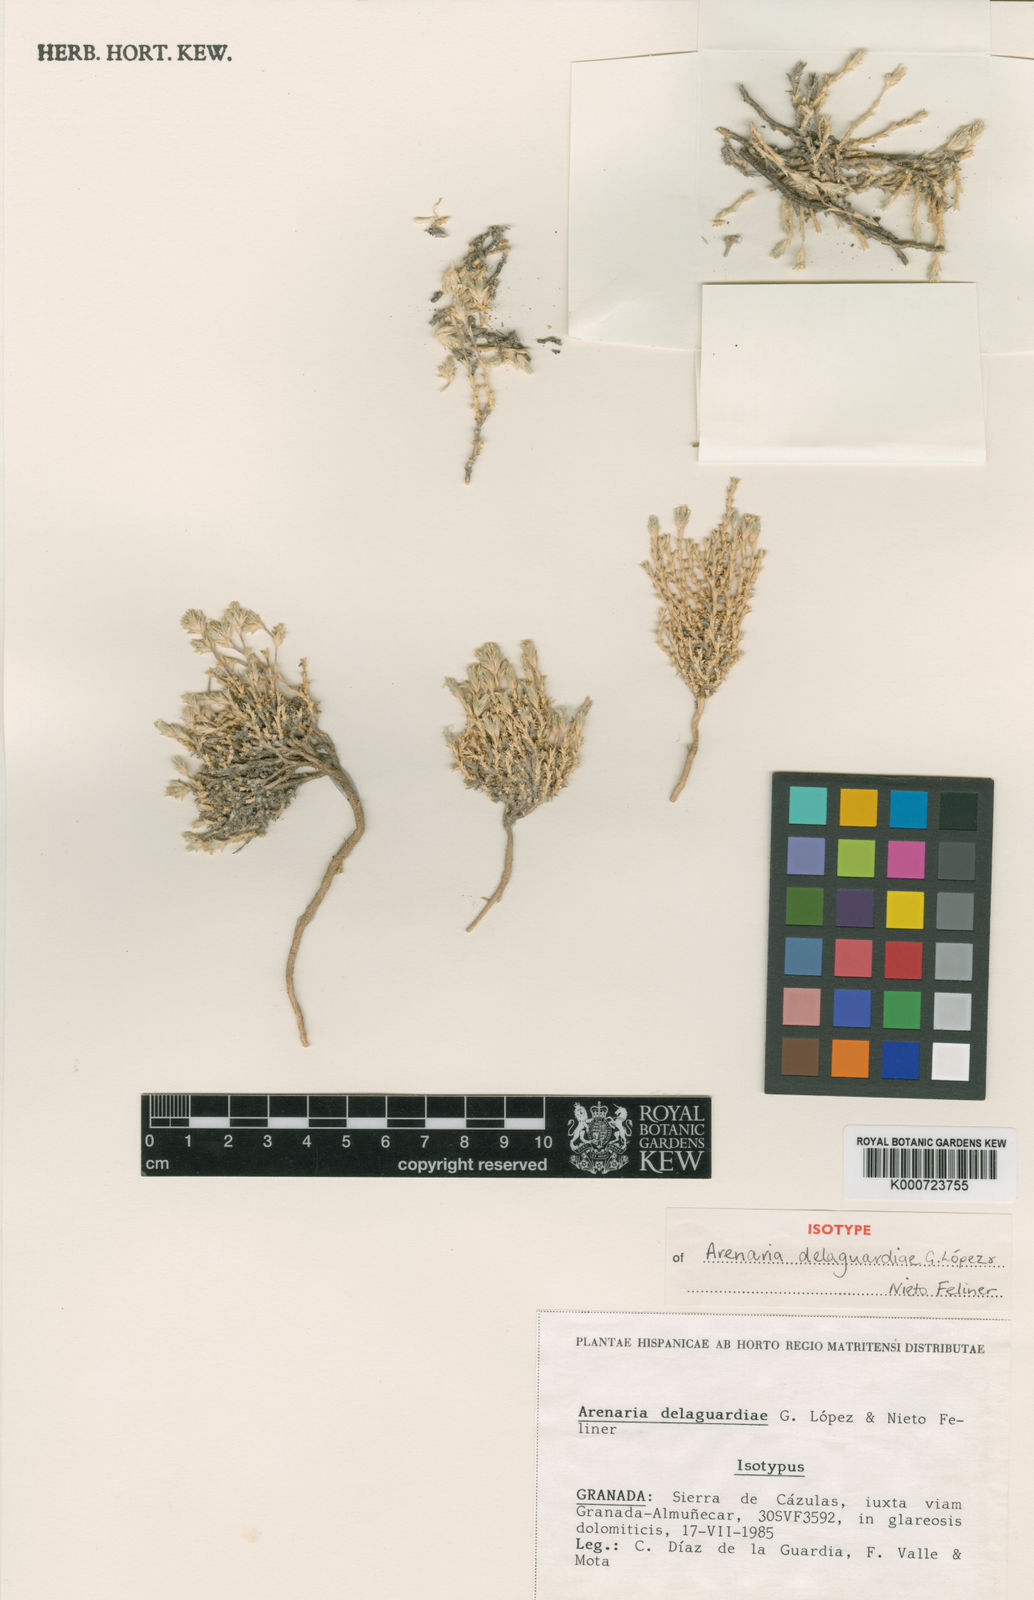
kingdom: Plantae
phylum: Tracheophyta
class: Magnoliopsida
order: Caryophyllales
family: Caryophyllaceae
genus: Arenaria
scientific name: Arenaria
